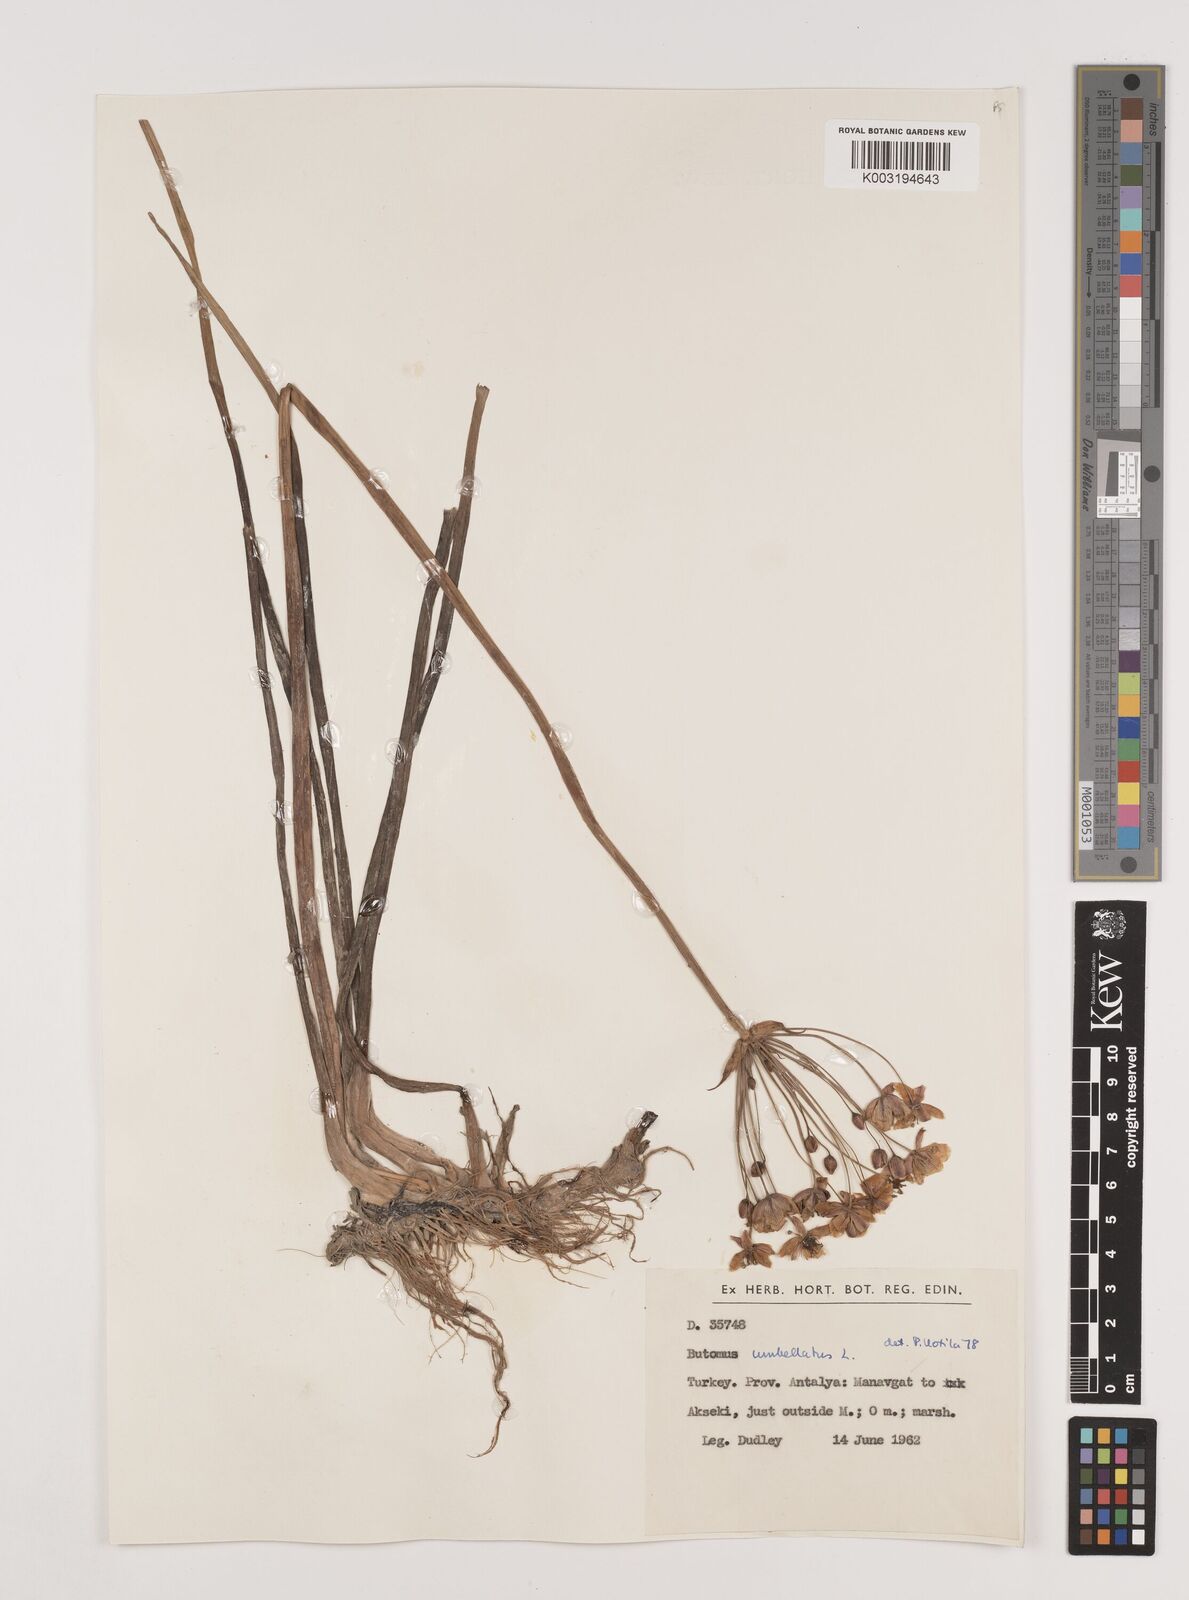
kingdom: Plantae
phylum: Tracheophyta
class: Liliopsida
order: Alismatales
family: Butomaceae
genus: Butomus
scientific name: Butomus umbellatus
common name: Flowering-rush
